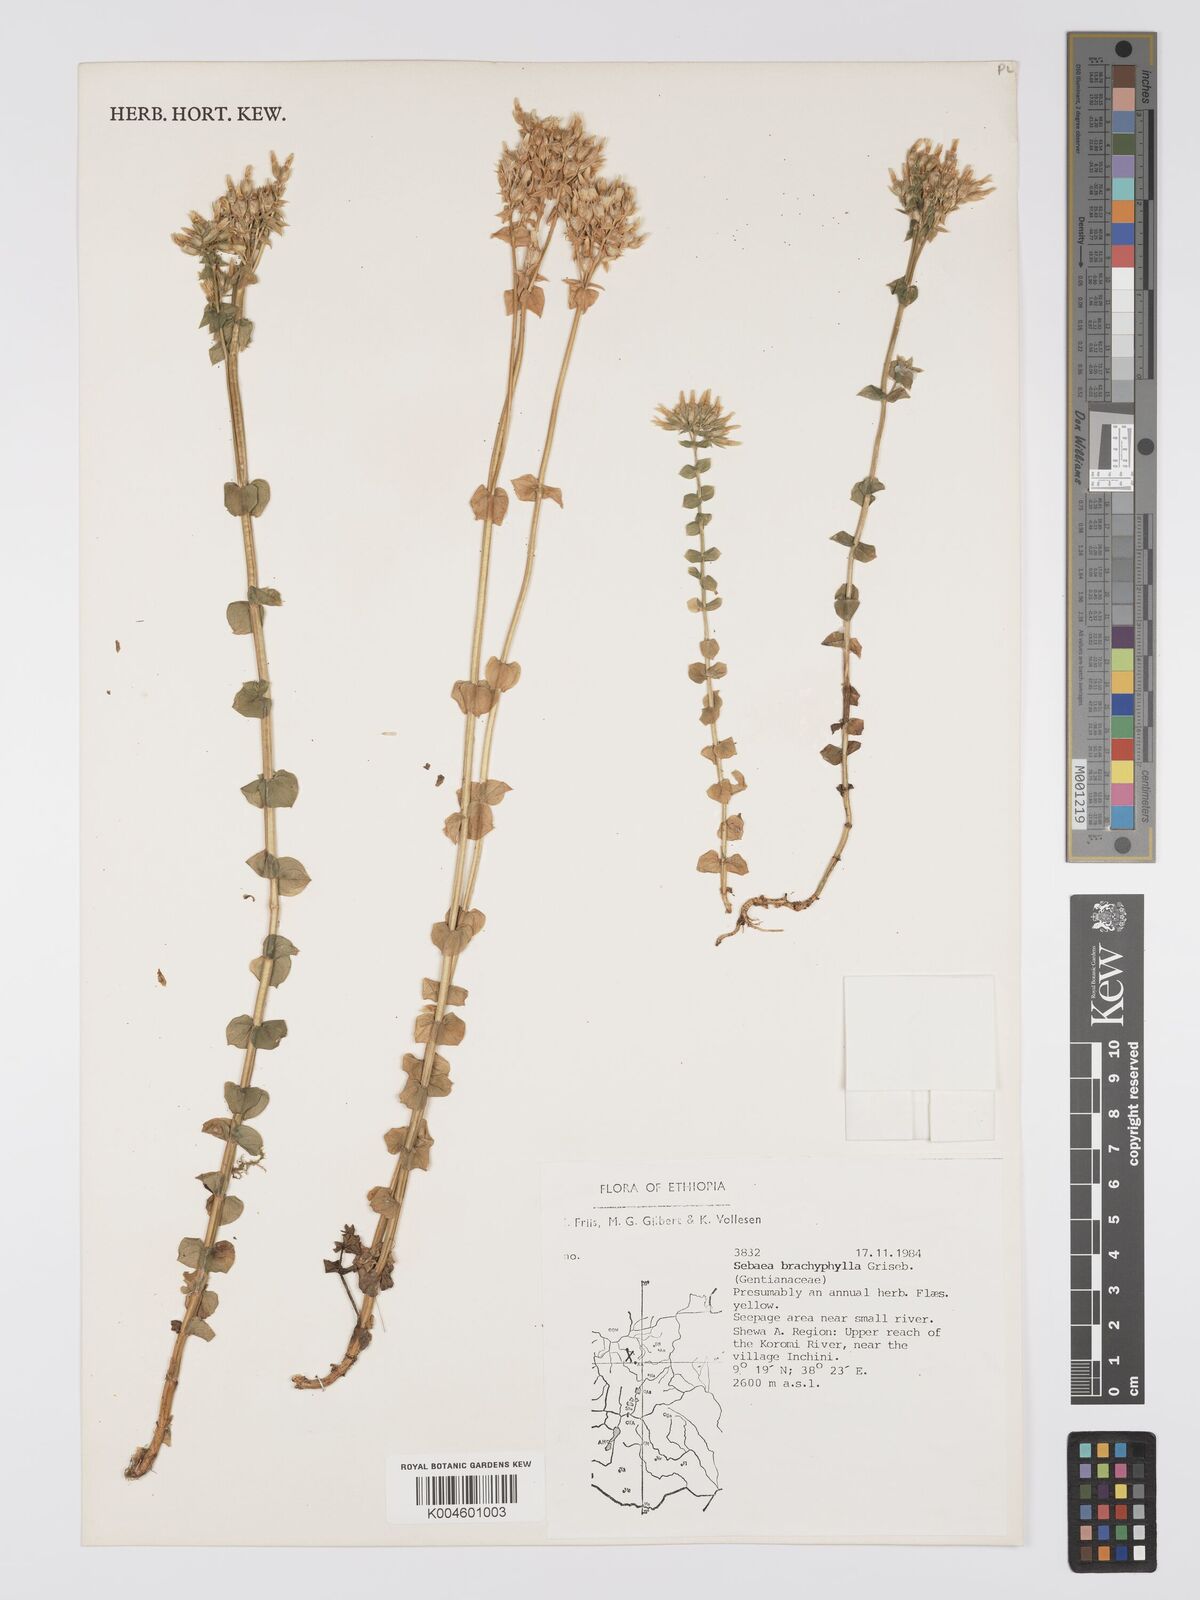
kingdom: Plantae
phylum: Tracheophyta
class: Magnoliopsida
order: Gentianales
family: Gentianaceae
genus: Sebaea
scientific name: Sebaea brachyphylla
